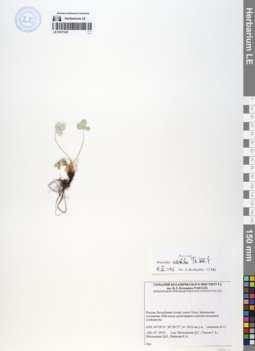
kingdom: Plantae
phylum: Tracheophyta
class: Magnoliopsida
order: Rosales
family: Rosaceae
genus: Potentilla
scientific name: Potentilla evestita
